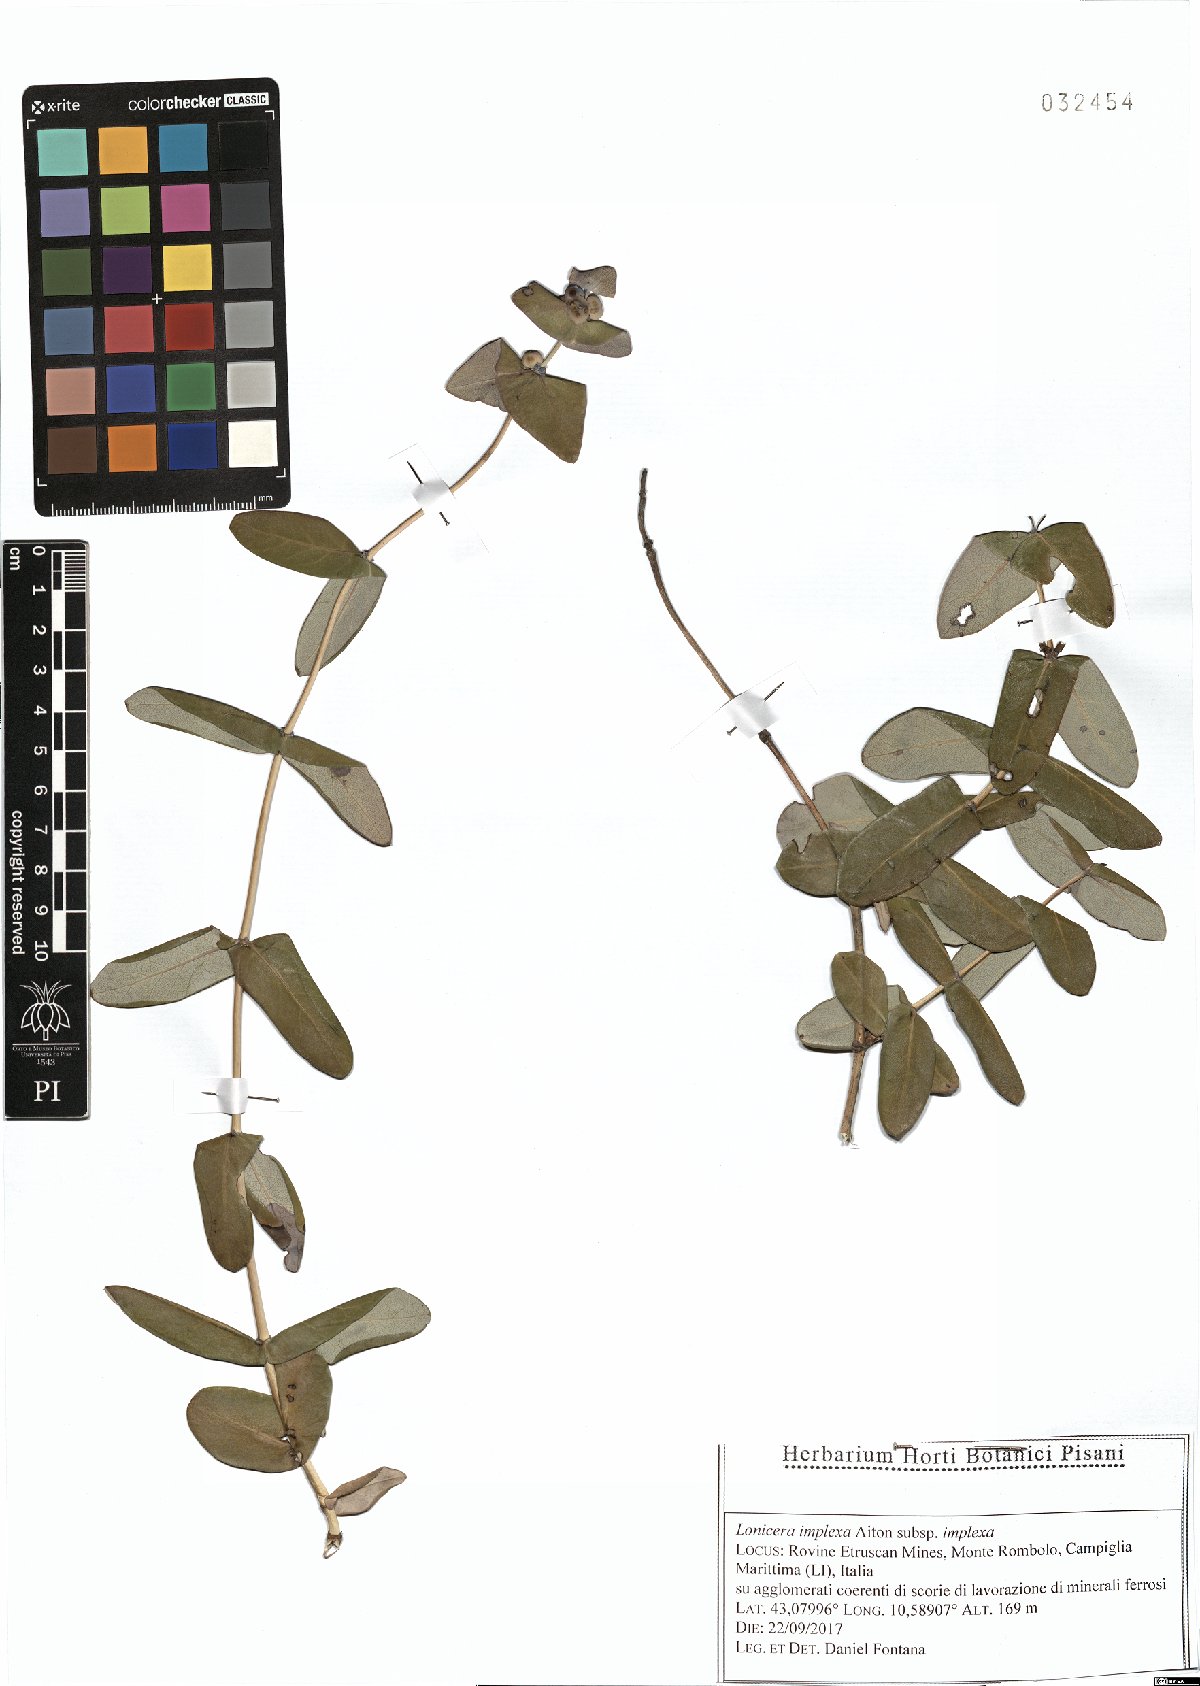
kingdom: Plantae
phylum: Tracheophyta
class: Magnoliopsida
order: Dipsacales
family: Caprifoliaceae
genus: Lonicera
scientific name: Lonicera implexa
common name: Minorca honeysuckle
